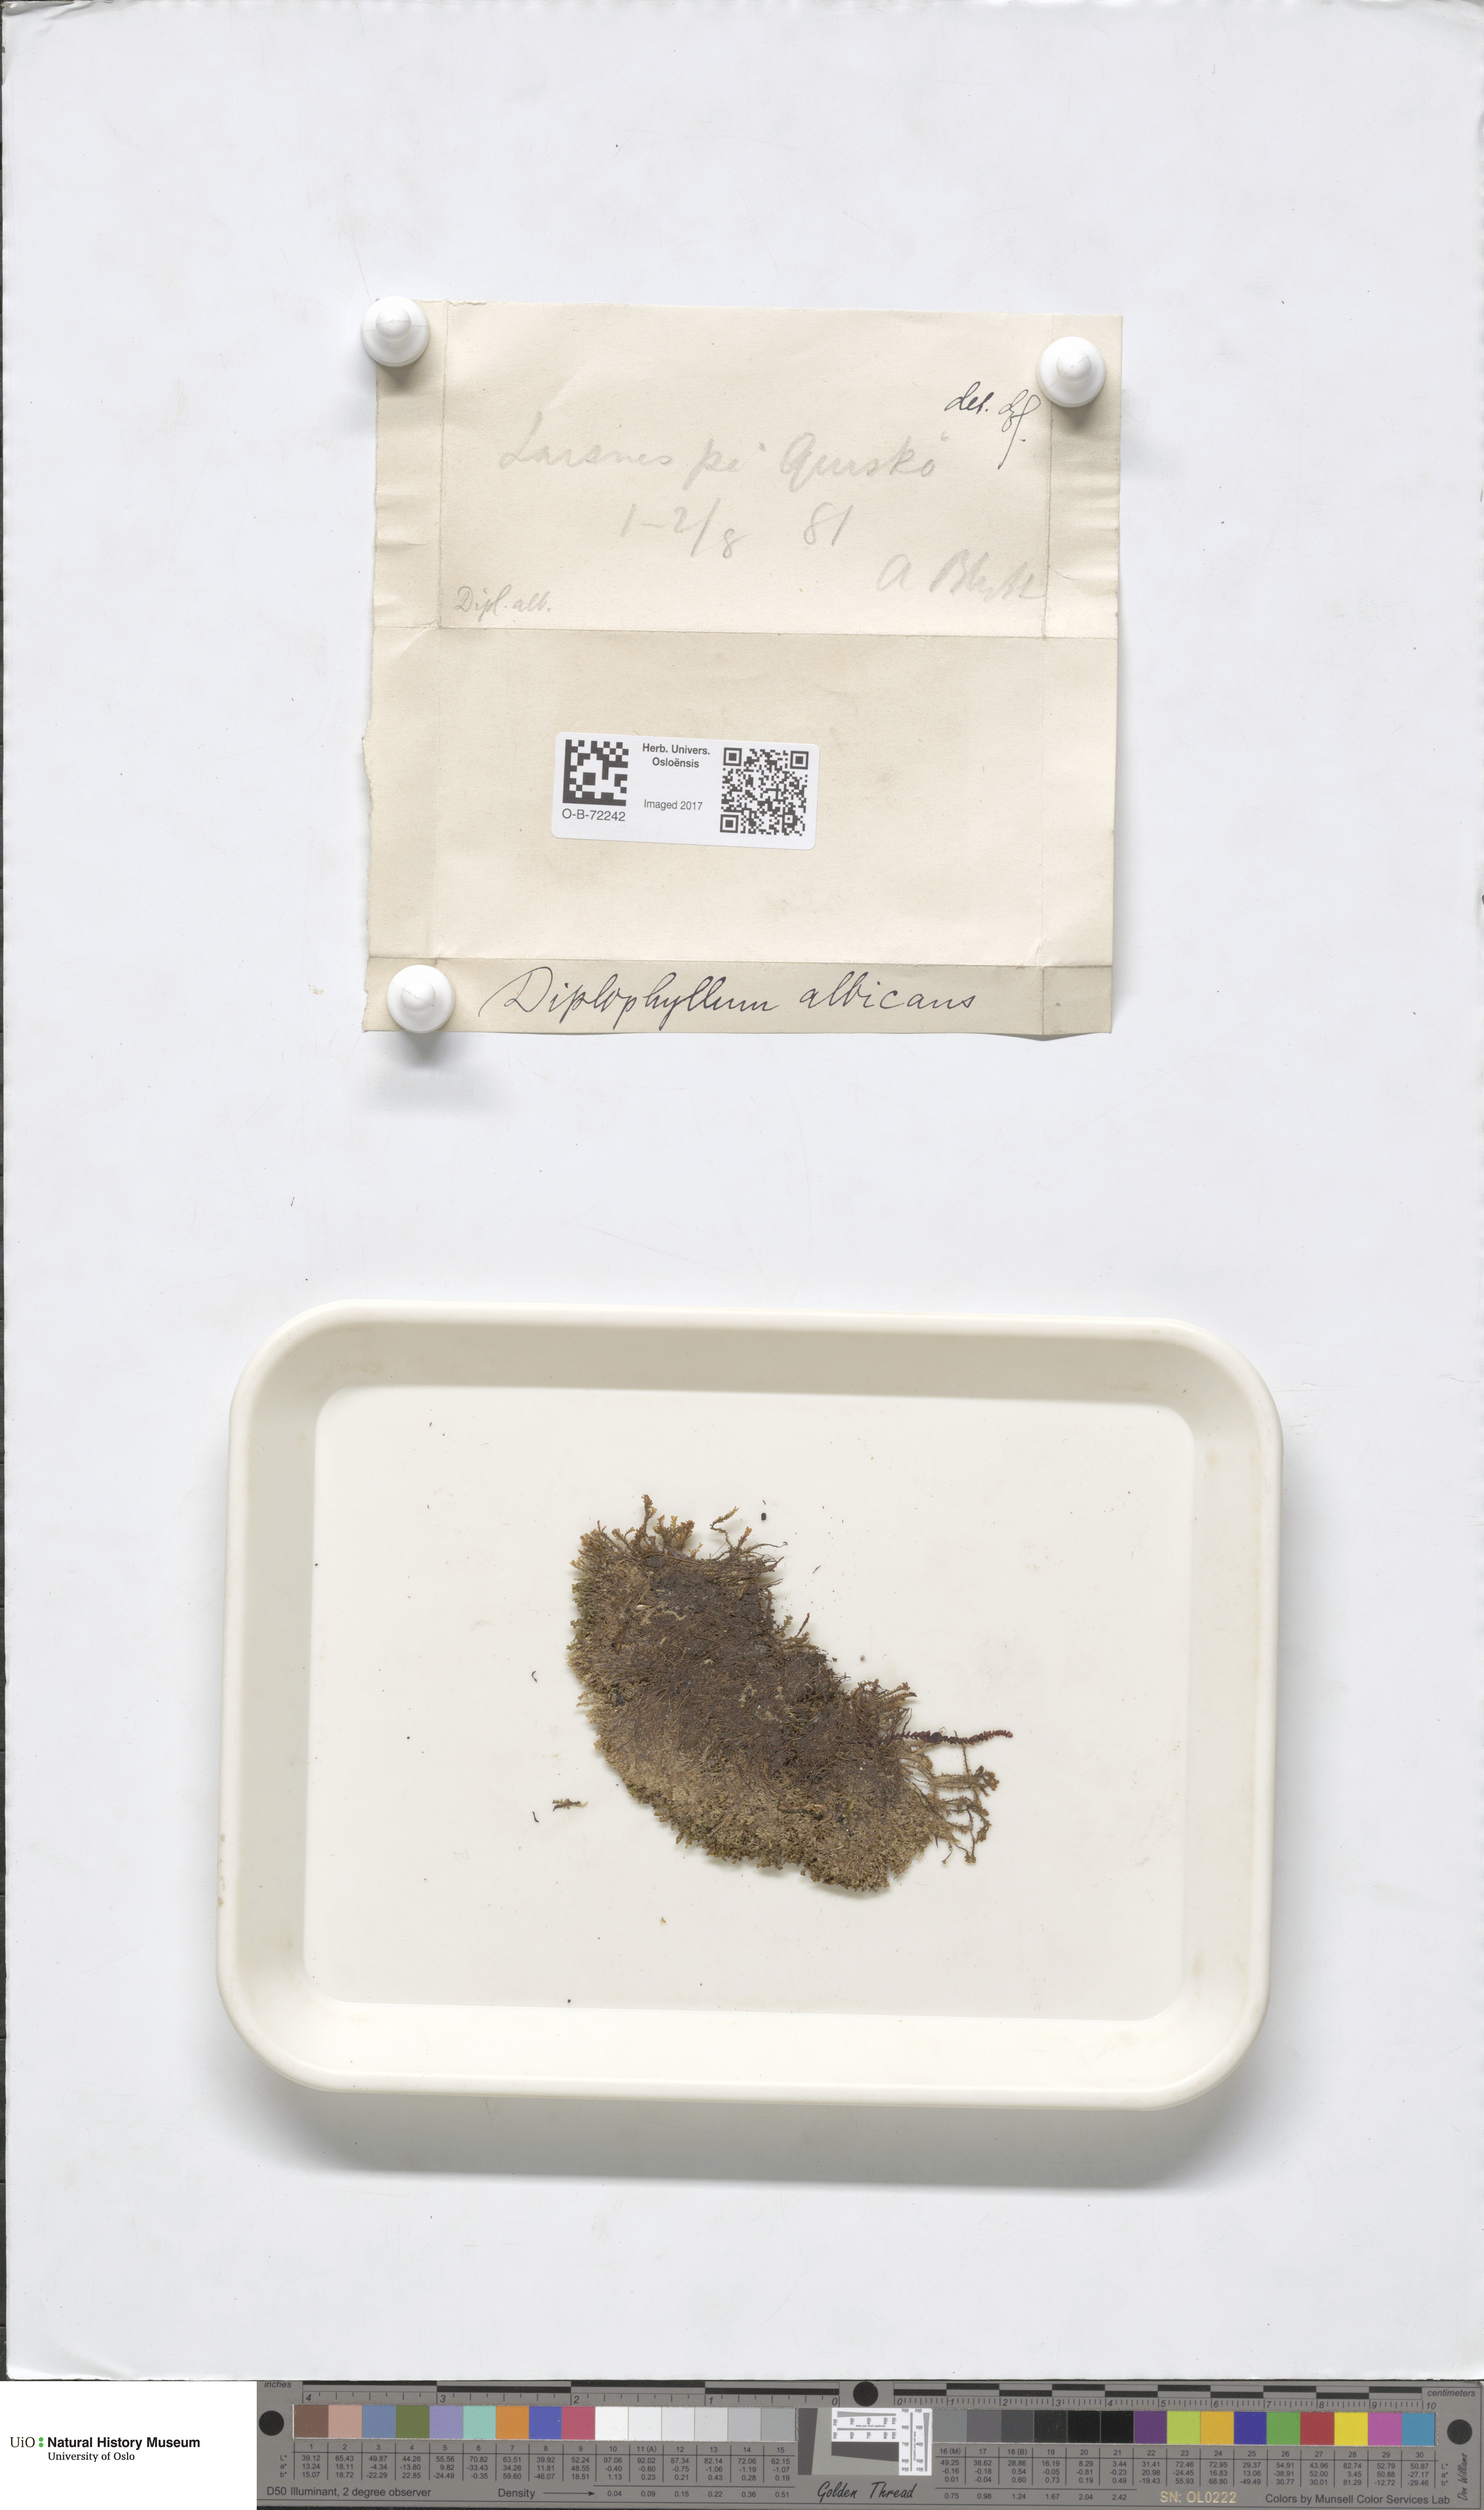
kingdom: Plantae
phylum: Marchantiophyta
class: Jungermanniopsida
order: Jungermanniales
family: Scapaniaceae
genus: Diplophyllum
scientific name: Diplophyllum albicans
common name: White earwort
